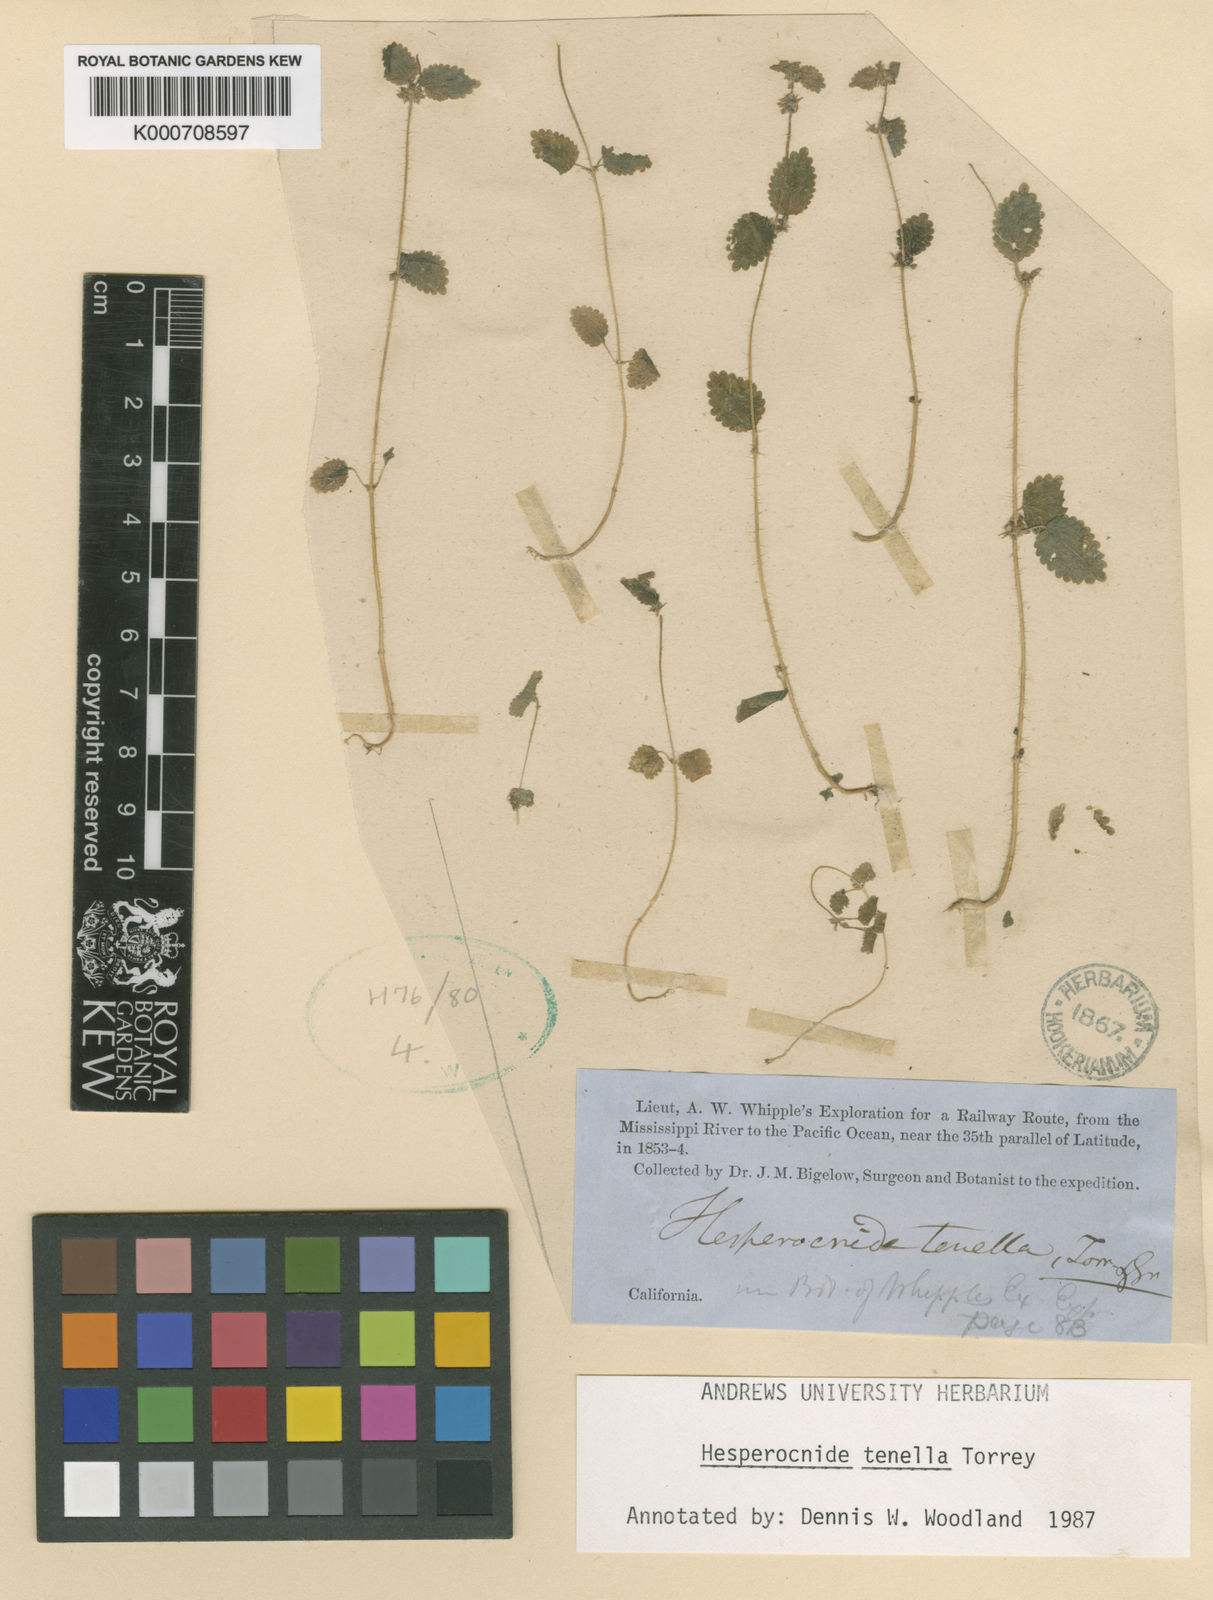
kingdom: Plantae
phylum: Tracheophyta
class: Magnoliopsida
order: Rosales
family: Urticaceae
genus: Hesperocnide
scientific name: Hesperocnide tenella
